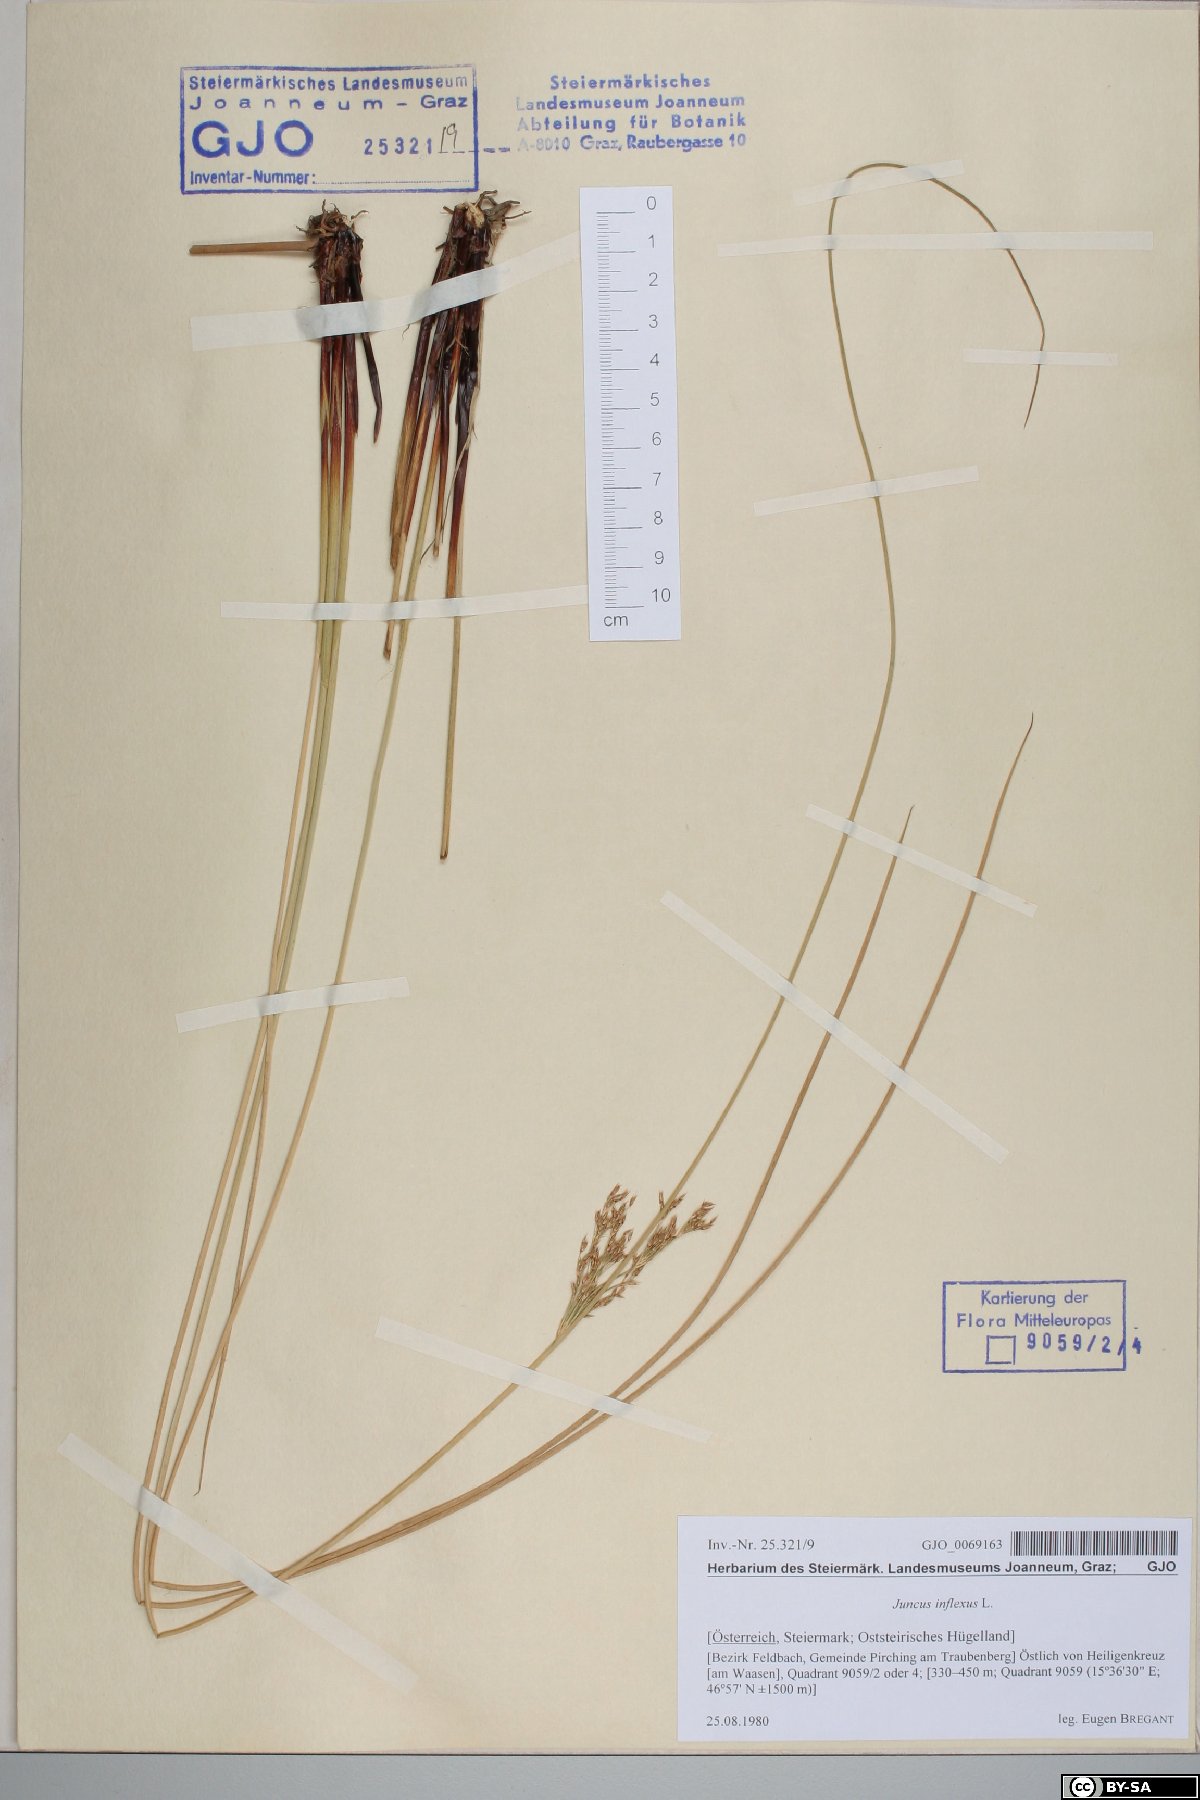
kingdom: Plantae
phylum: Tracheophyta
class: Liliopsida
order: Poales
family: Juncaceae
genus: Juncus
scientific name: Juncus inflexus
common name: Hard rush
